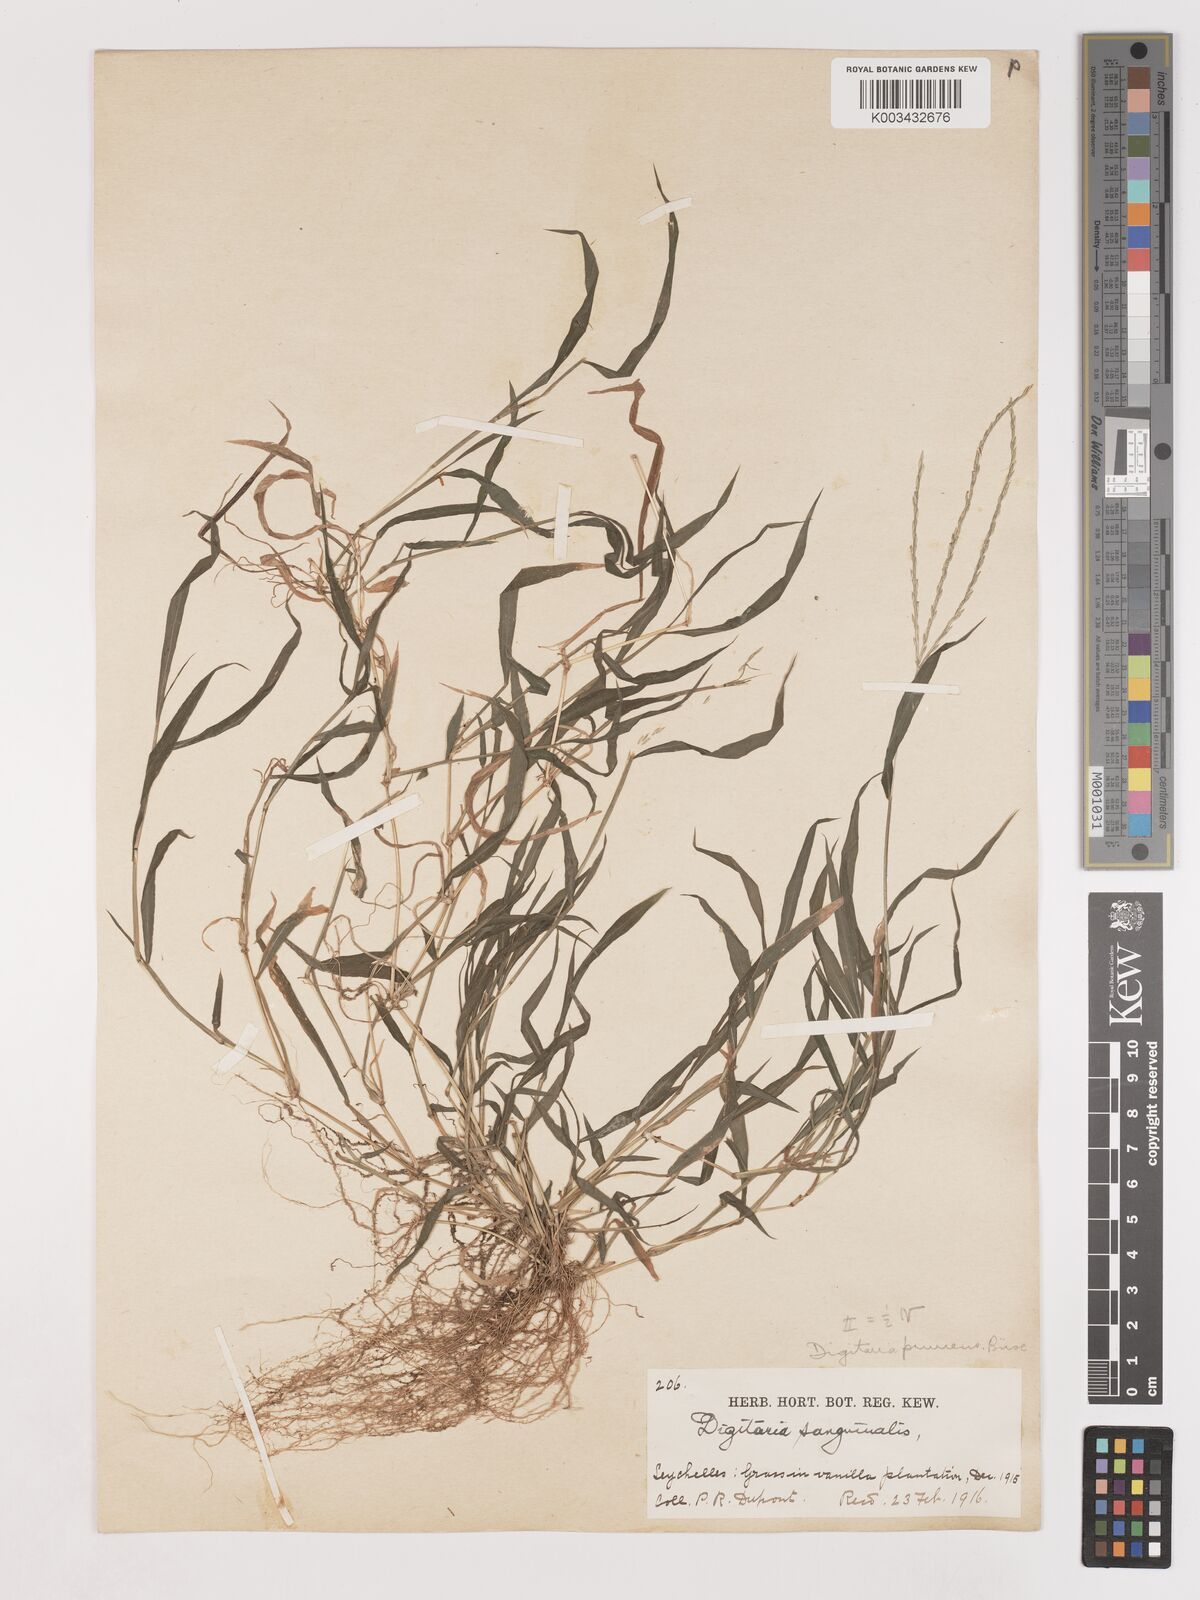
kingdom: Plantae
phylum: Tracheophyta
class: Liliopsida
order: Poales
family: Poaceae
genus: Digitaria
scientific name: Digitaria radicosa
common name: Trailing crabgrass
